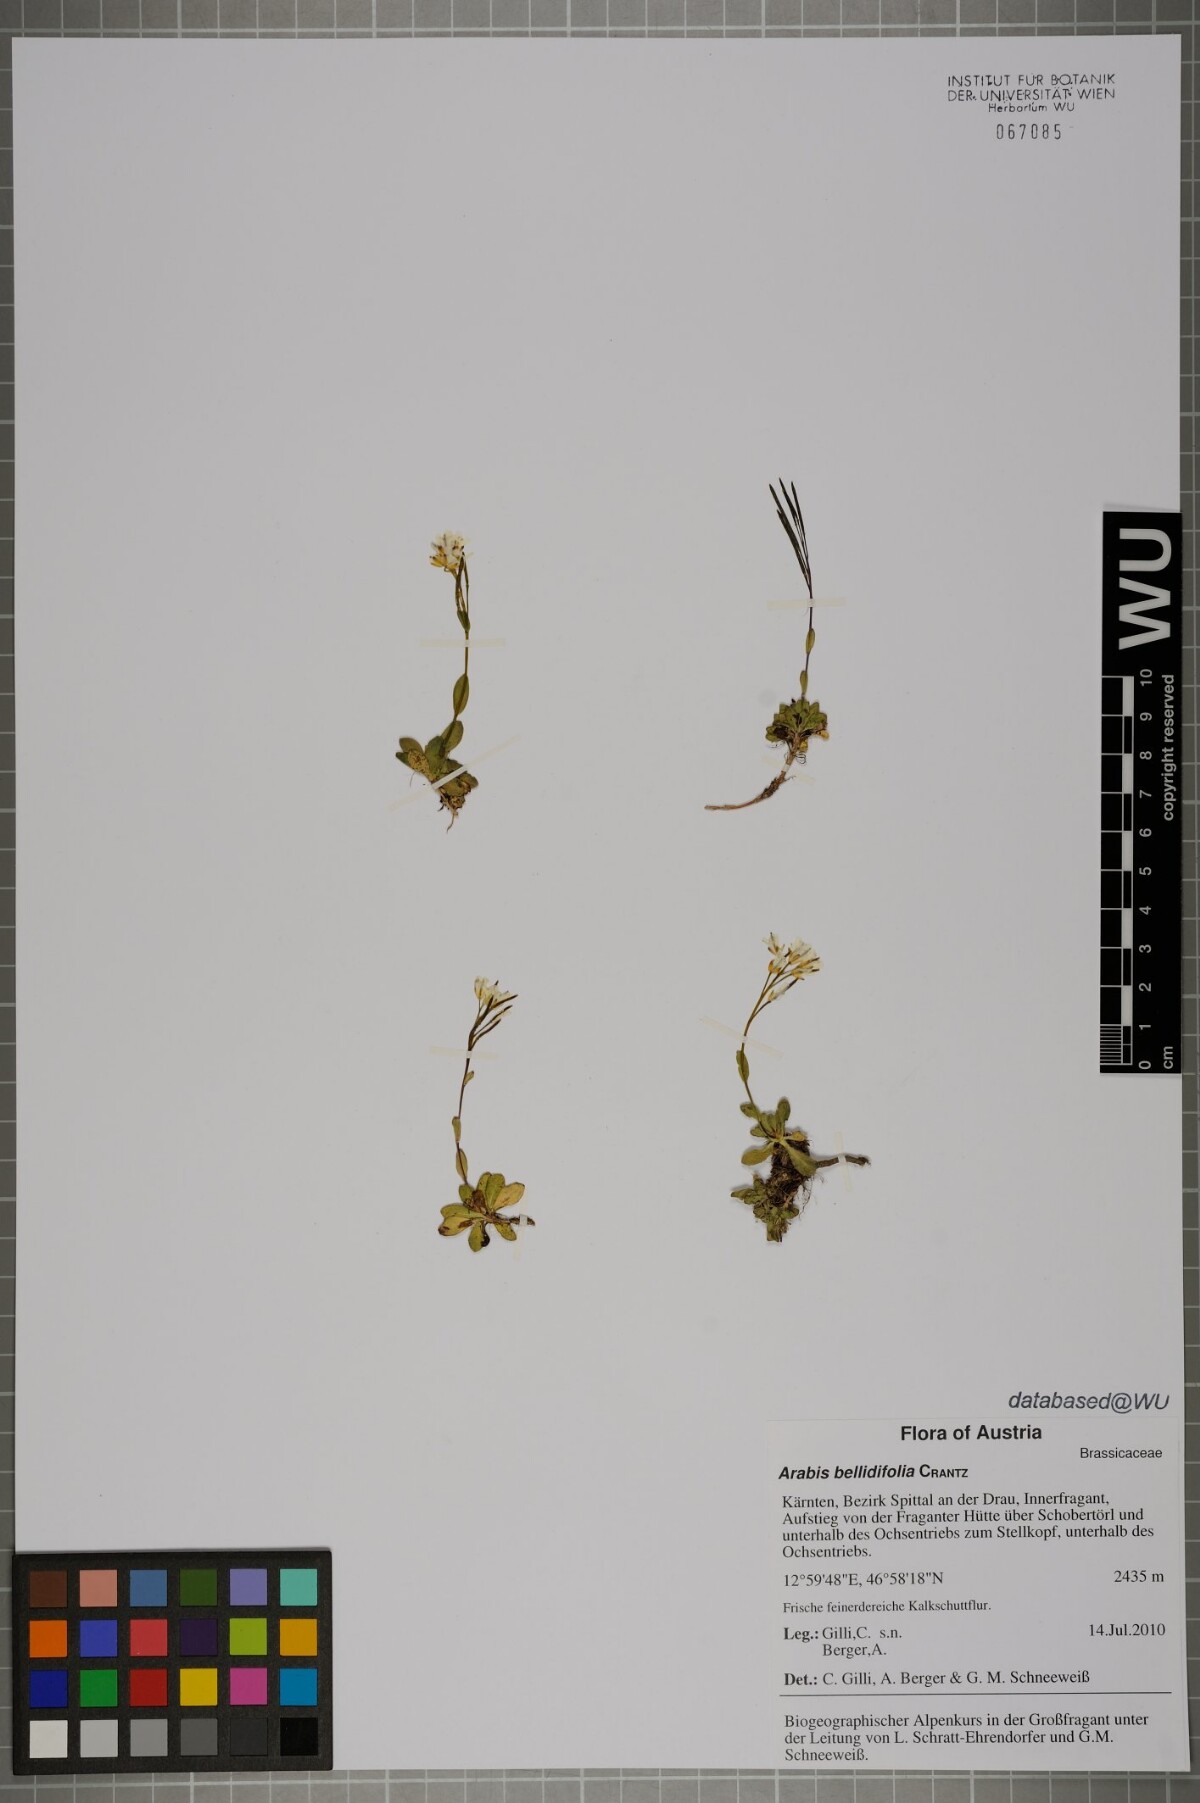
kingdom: Plantae
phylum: Tracheophyta
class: Magnoliopsida
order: Brassicales
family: Brassicaceae
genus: Arabis
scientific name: Arabis pumila
